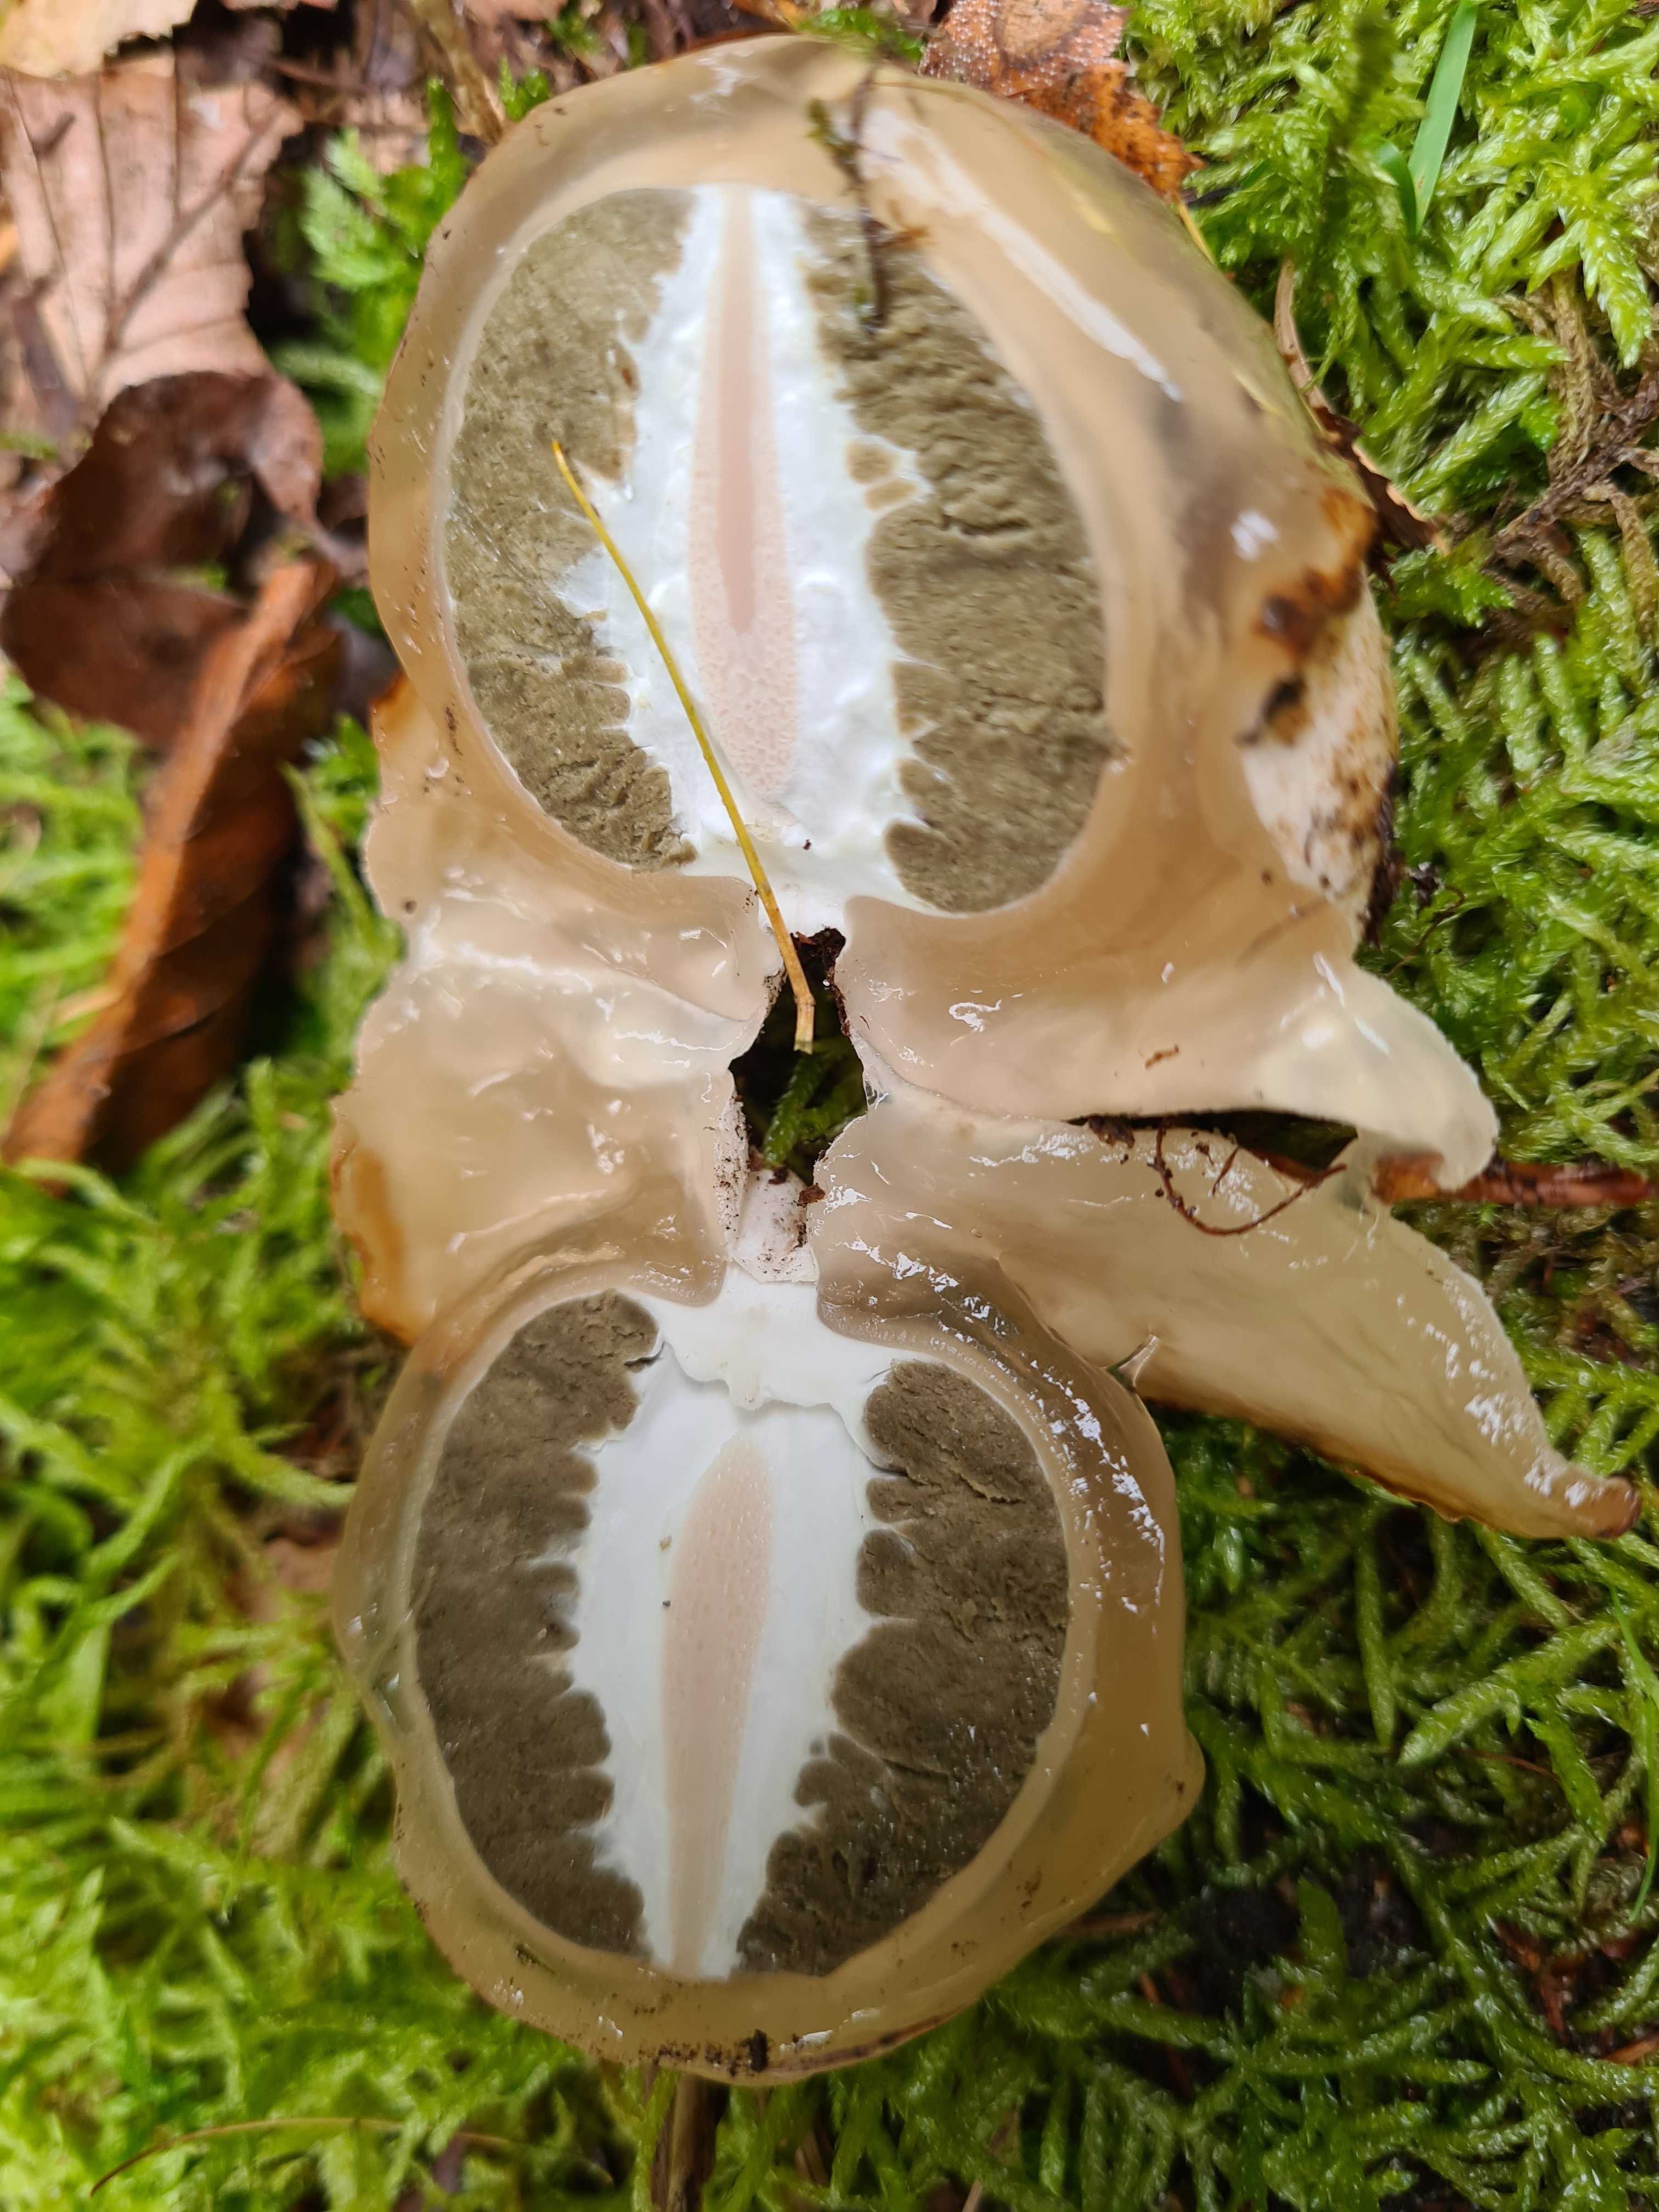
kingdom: Fungi
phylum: Basidiomycota
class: Agaricomycetes
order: Phallales
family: Phallaceae
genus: Phallus
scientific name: Phallus impudicus
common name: almindelig stinksvamp
